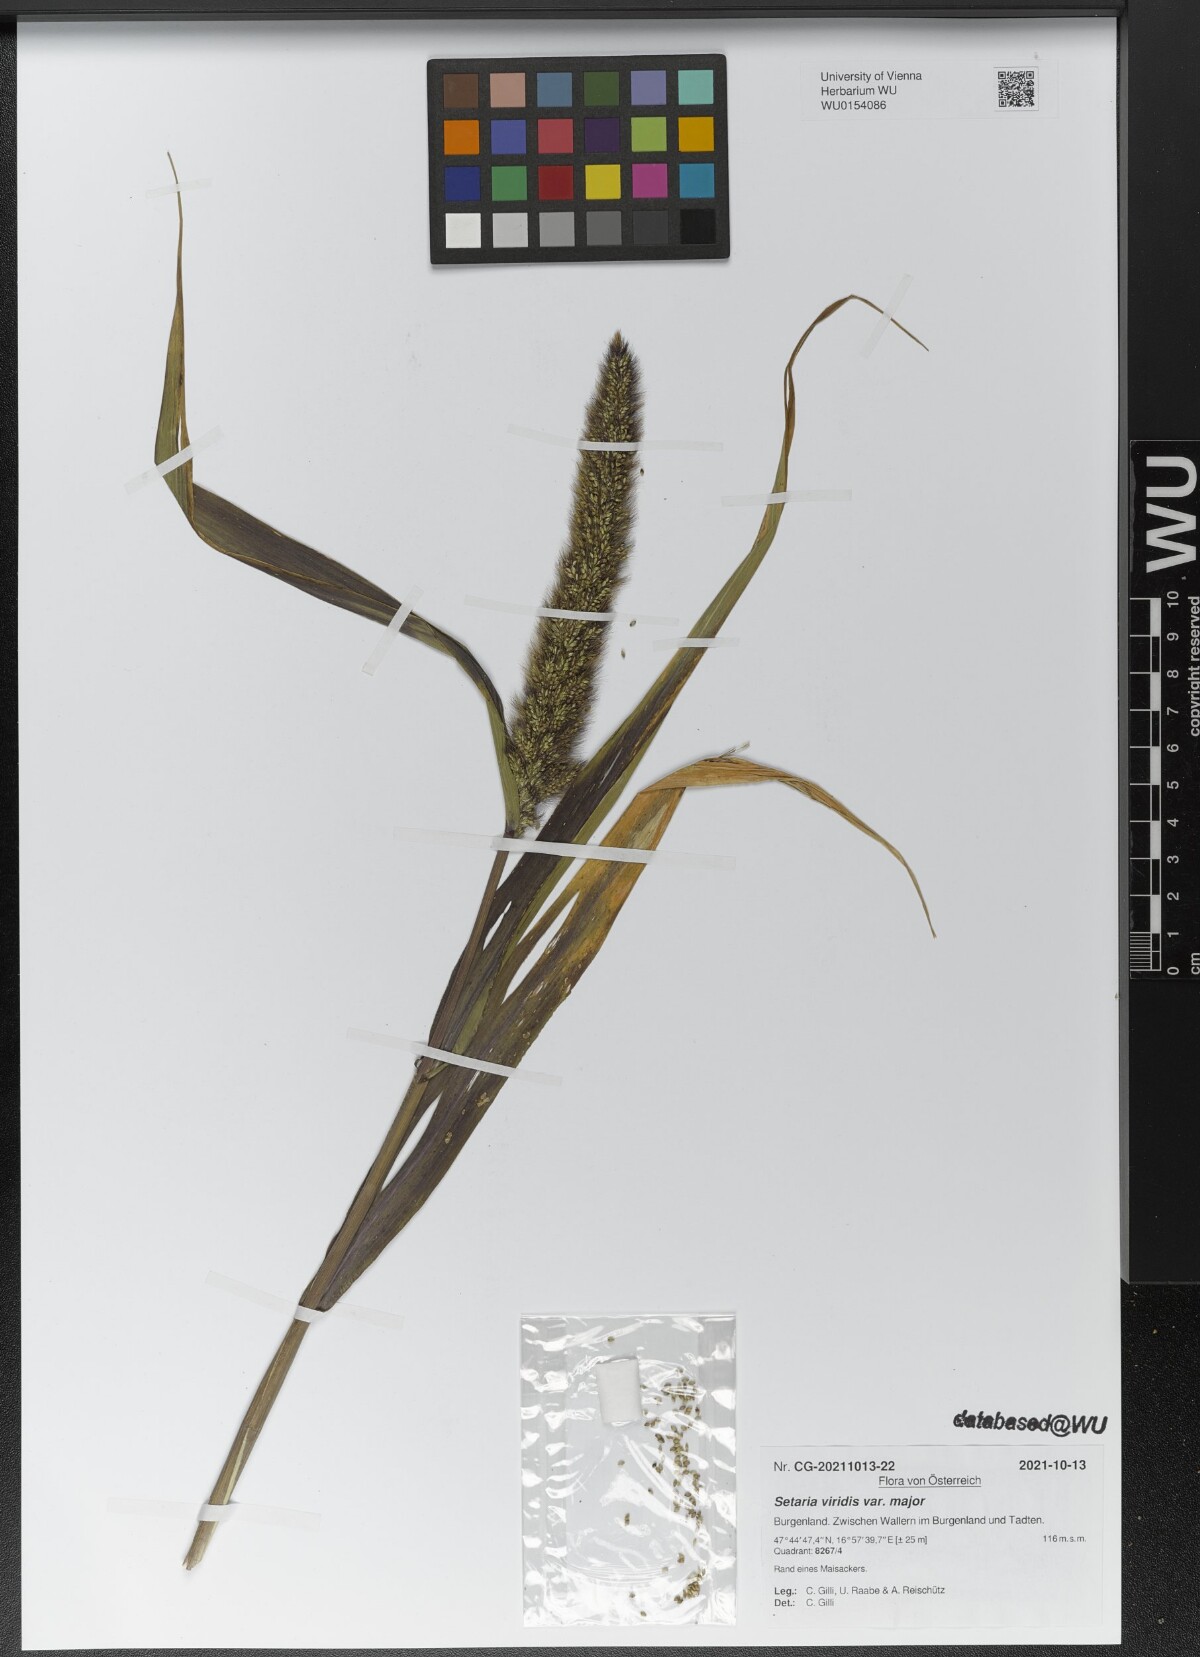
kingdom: Plantae
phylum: Tracheophyta
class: Liliopsida
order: Poales
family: Poaceae
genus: Setaria
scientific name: Setaria viridis
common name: Green bristlegrass
